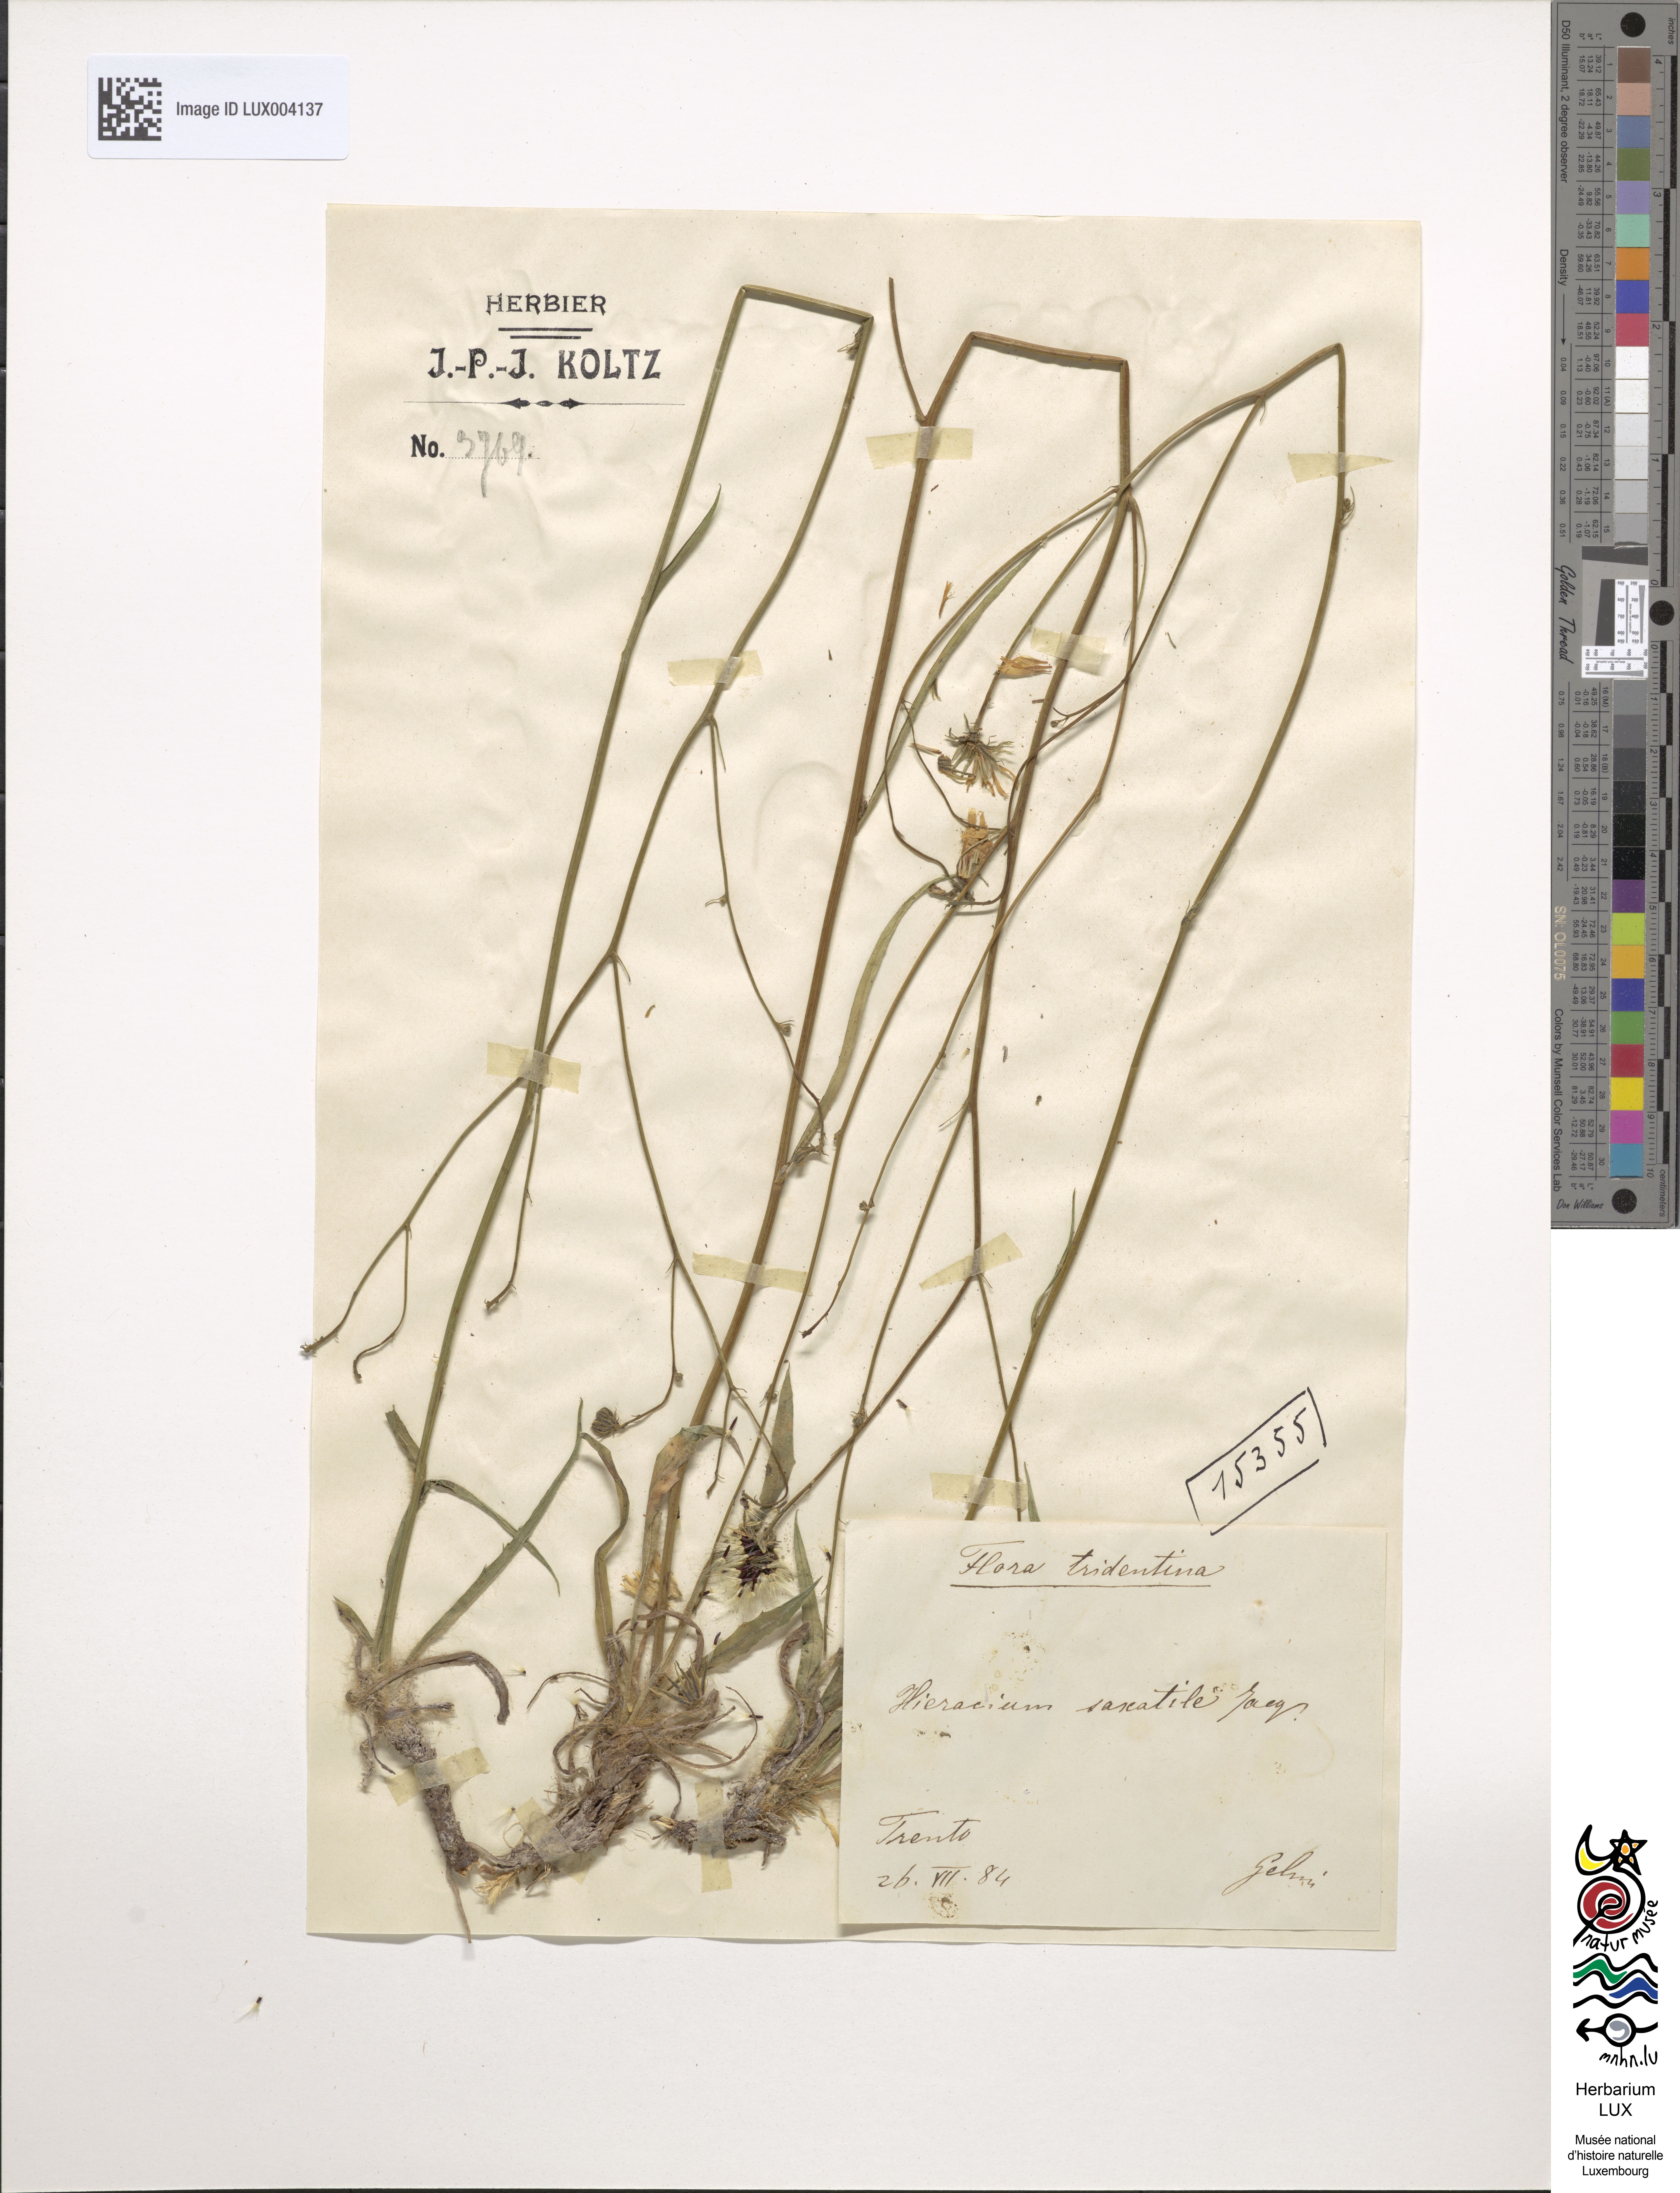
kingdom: Plantae
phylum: Tracheophyta
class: Magnoliopsida
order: Asterales
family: Asteraceae
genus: Hieracium
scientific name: Hieracium saxatile
